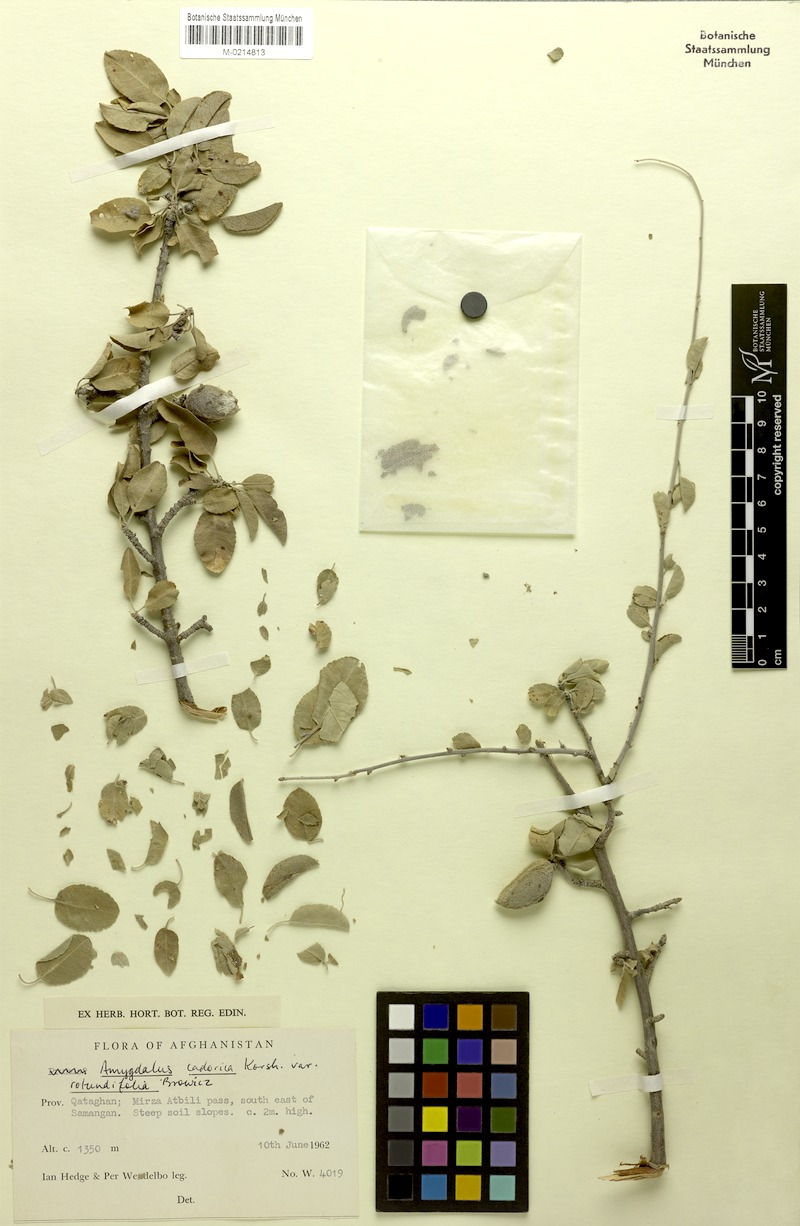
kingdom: Plantae
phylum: Tracheophyta
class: Magnoliopsida
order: Rosales
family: Rosaceae
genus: Prunus
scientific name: Prunus bucharica
